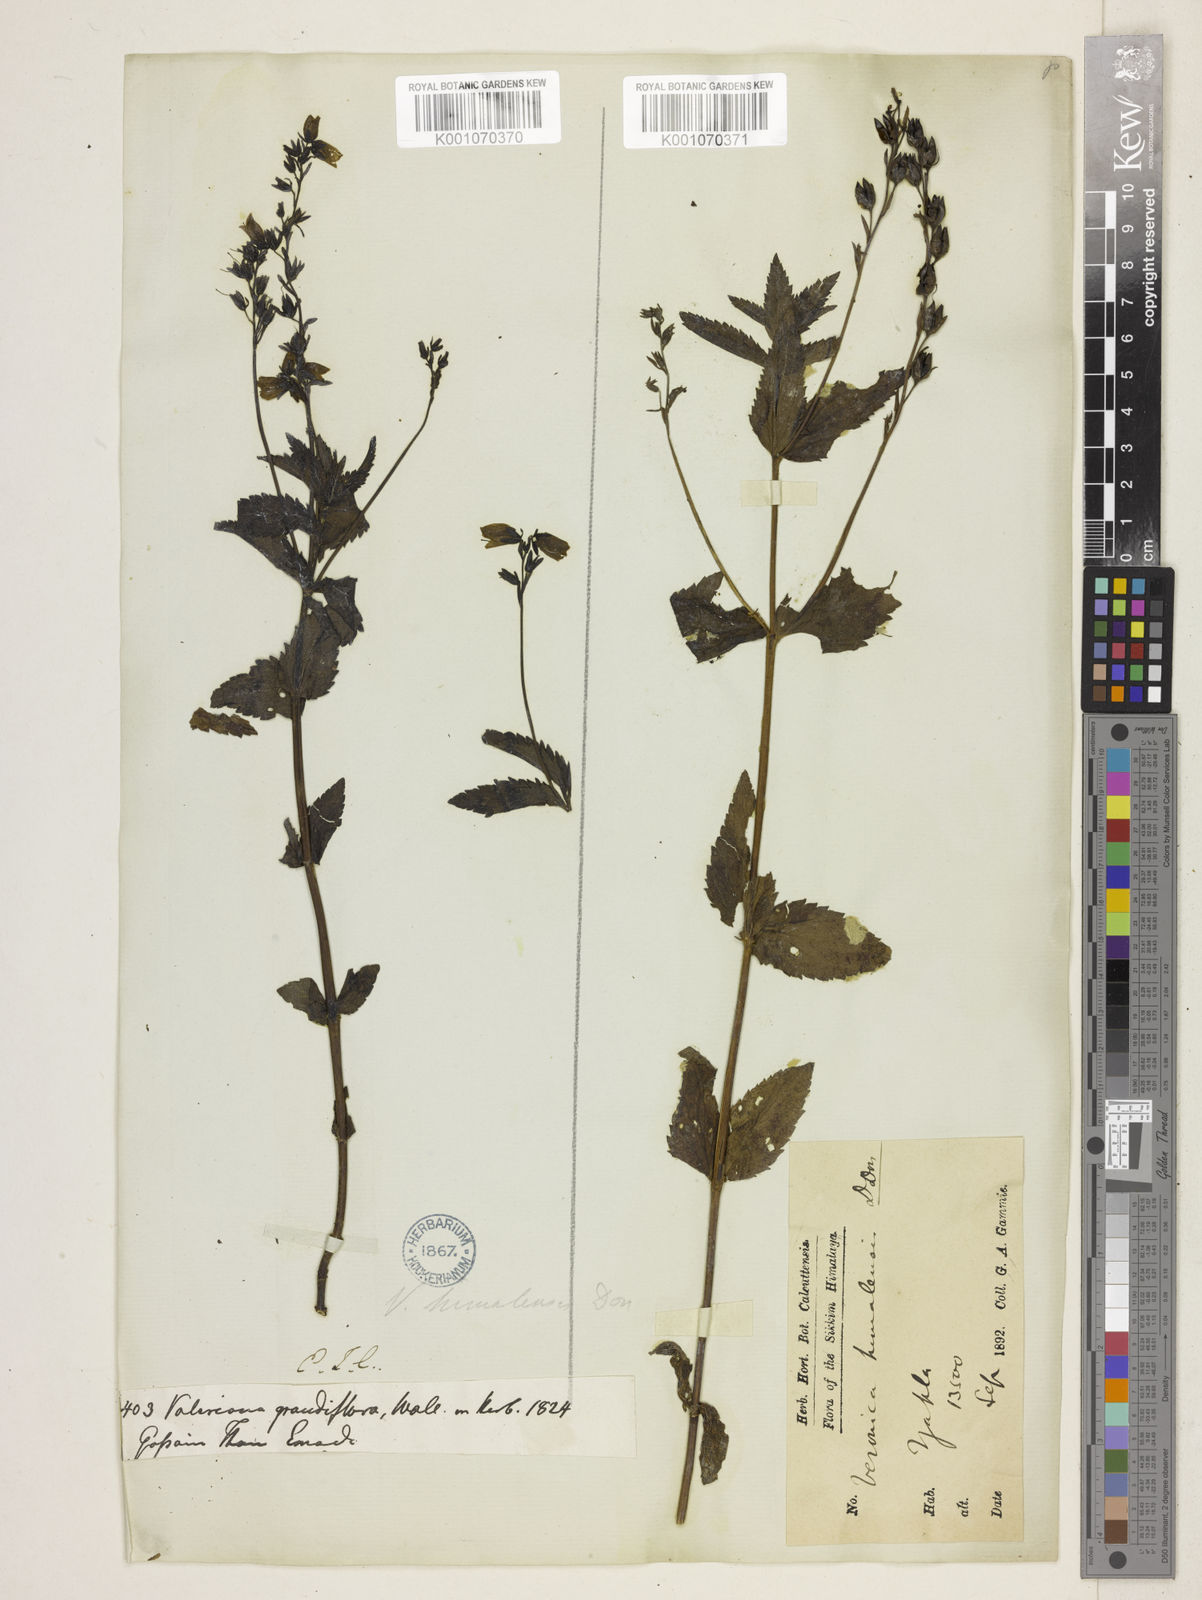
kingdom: Plantae
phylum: Tracheophyta
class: Magnoliopsida
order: Lamiales
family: Plantaginaceae
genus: Veronica
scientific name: Veronica himalensis
